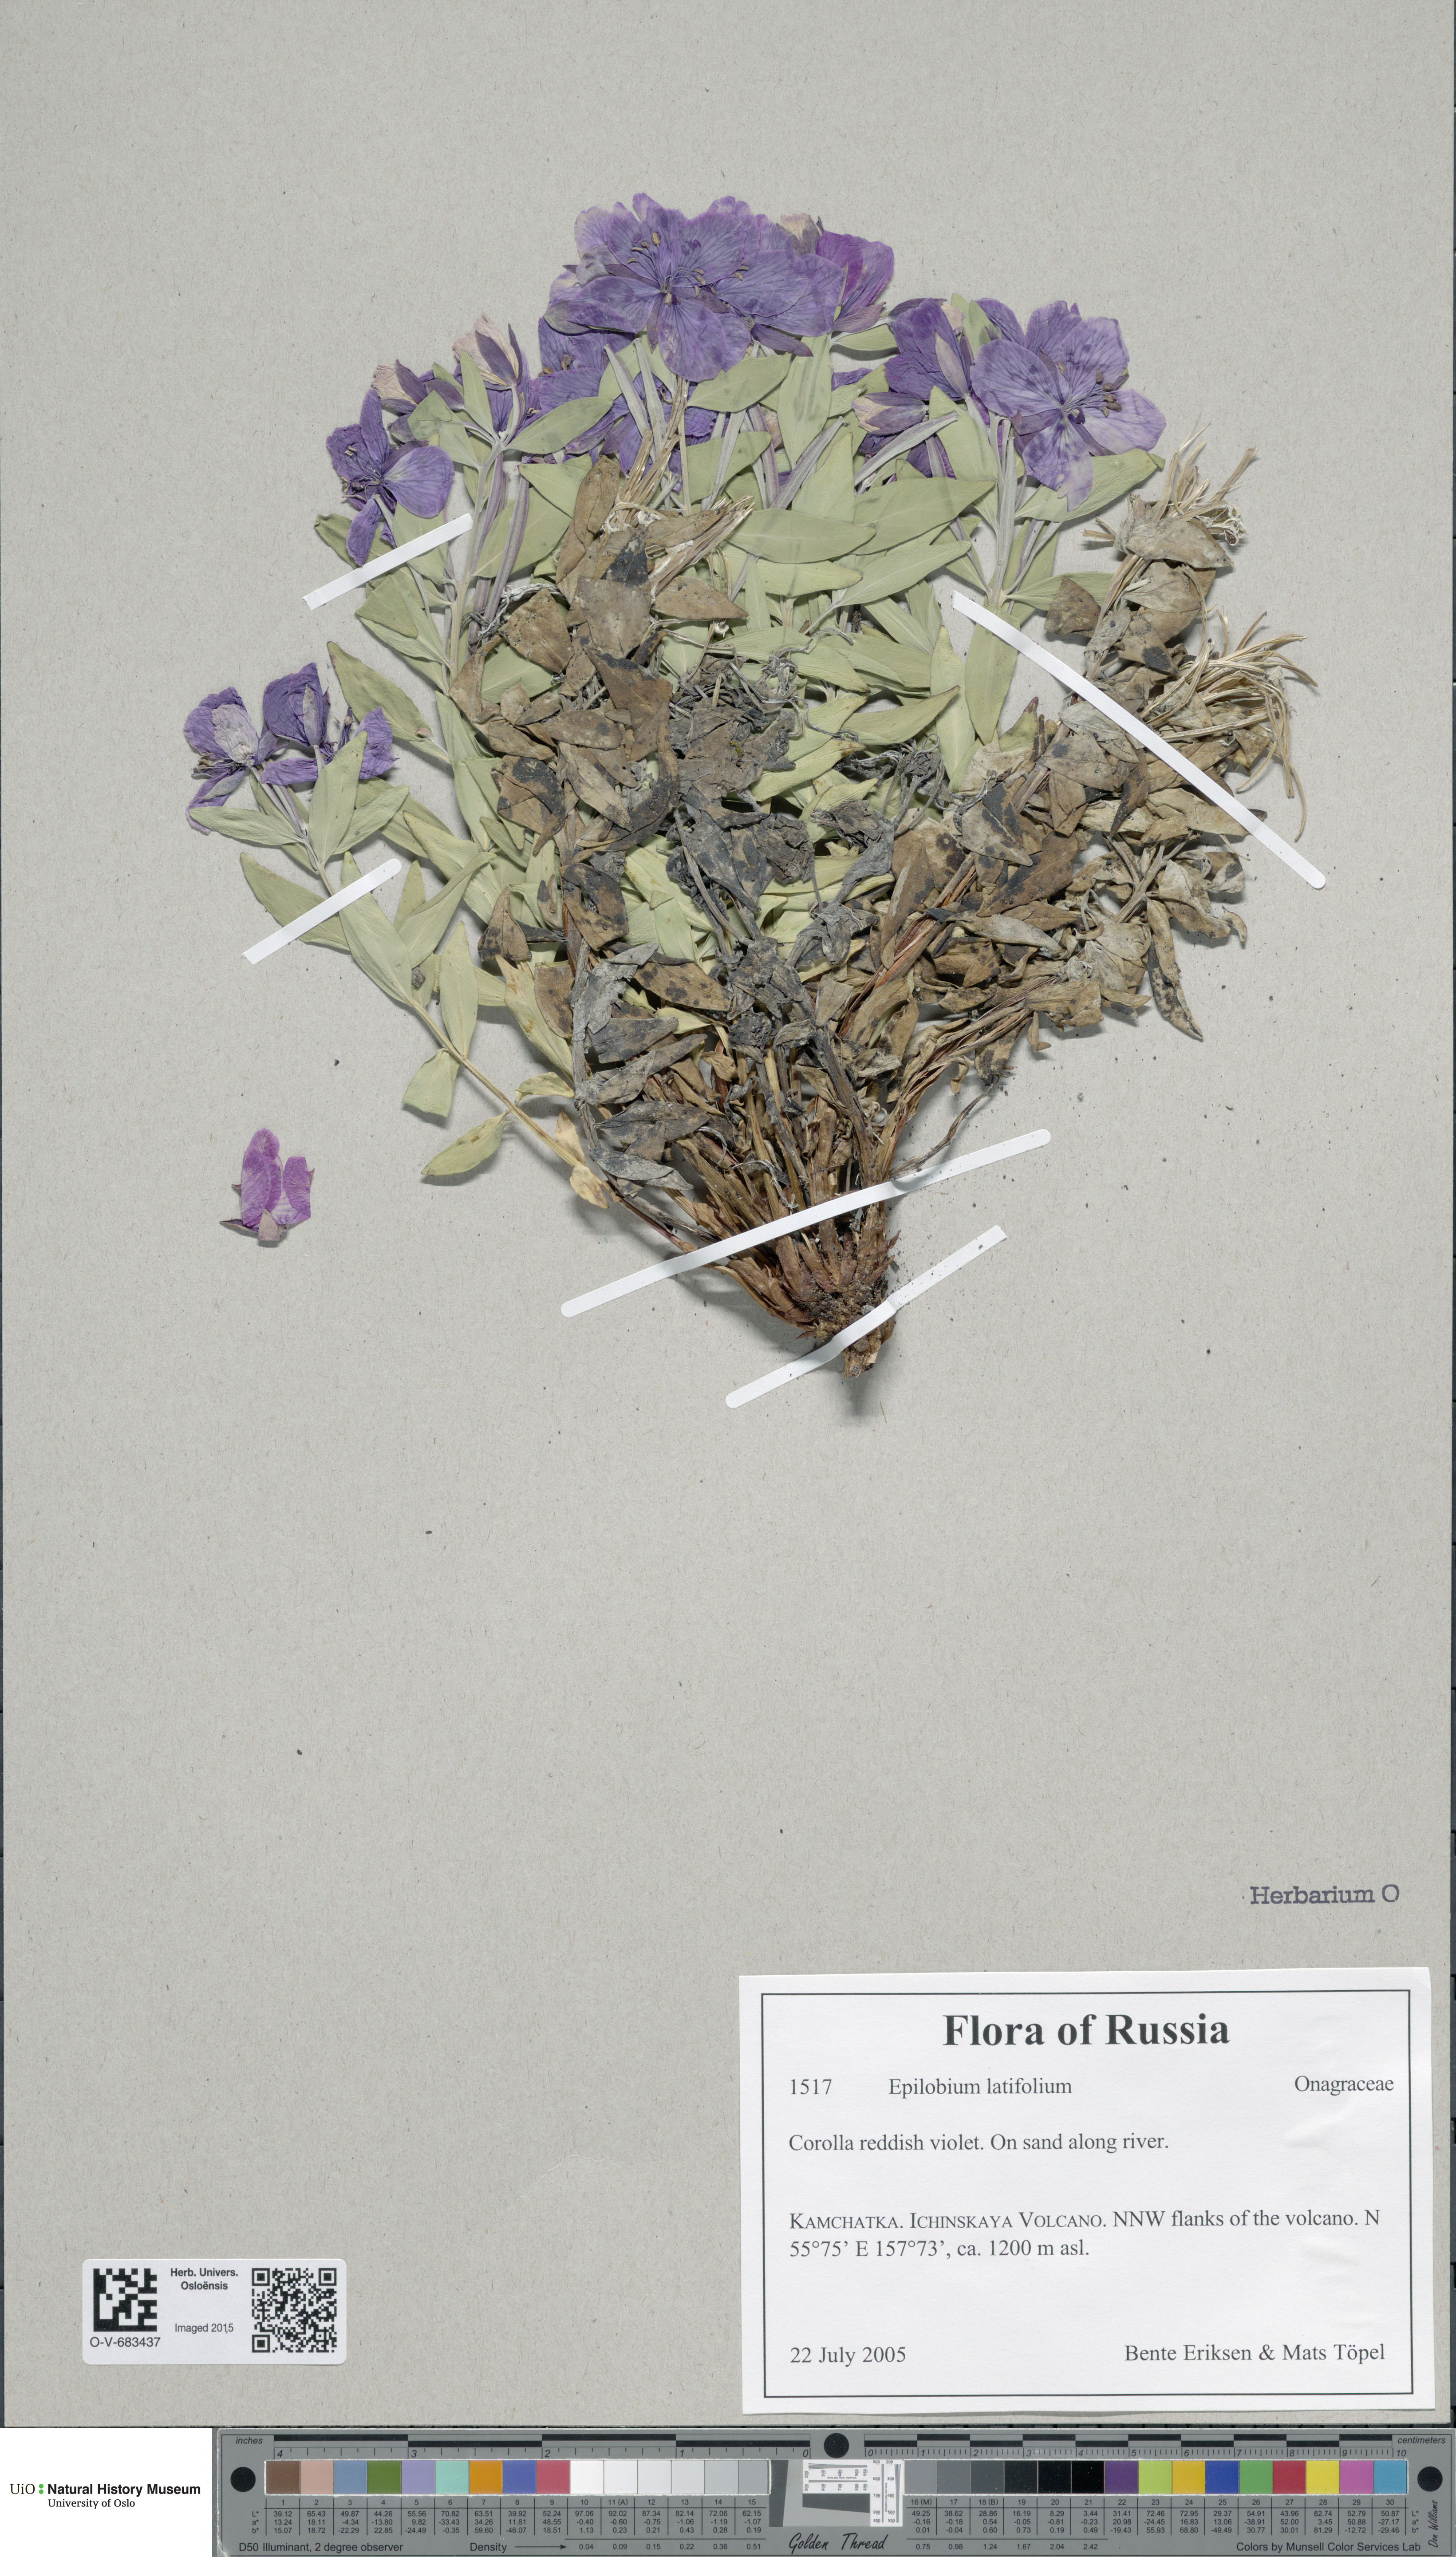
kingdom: Plantae
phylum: Tracheophyta
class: Magnoliopsida
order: Myrtales
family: Onagraceae
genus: Chamaenerion
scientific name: Chamaenerion latifolium
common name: Dwarf fireweed
